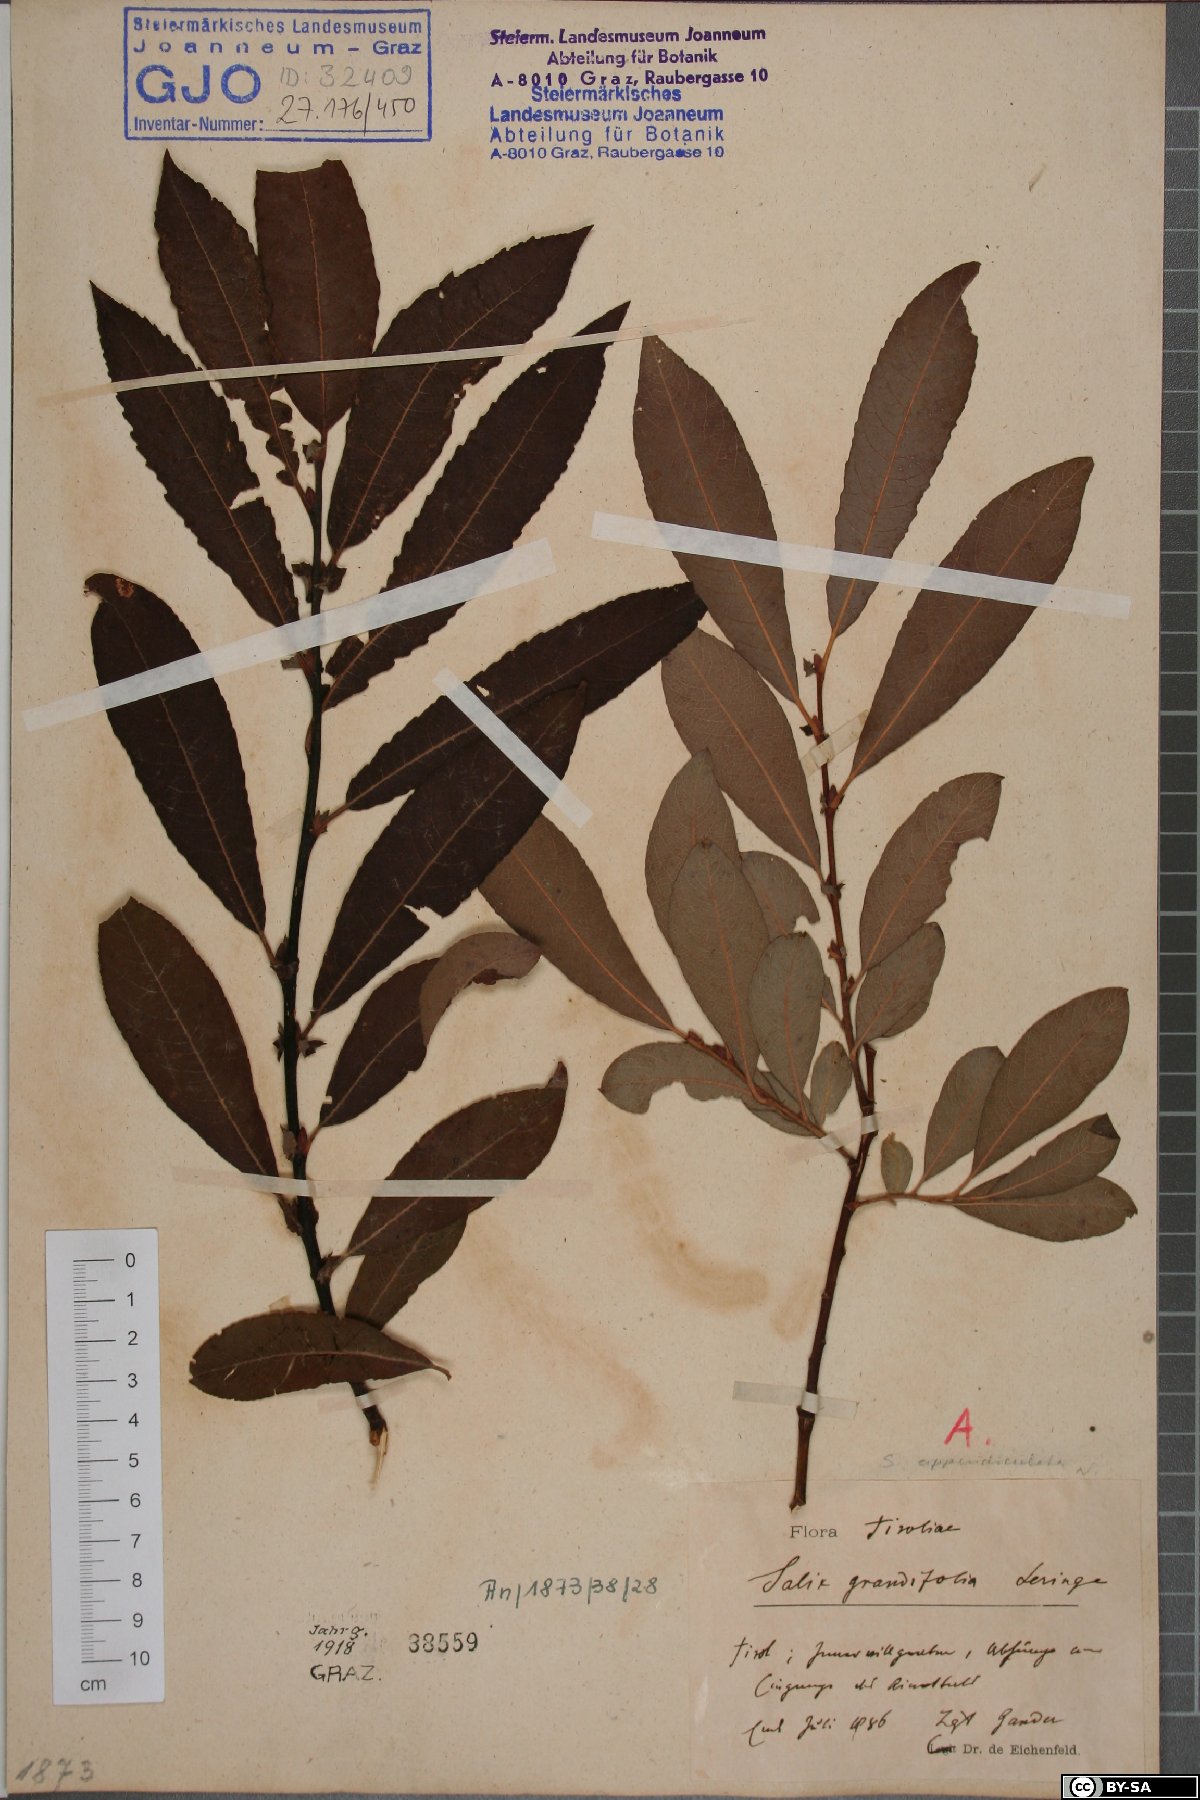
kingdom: Plantae
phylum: Tracheophyta
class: Magnoliopsida
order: Malpighiales
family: Salicaceae
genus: Salix
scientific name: Salix appendiculata
